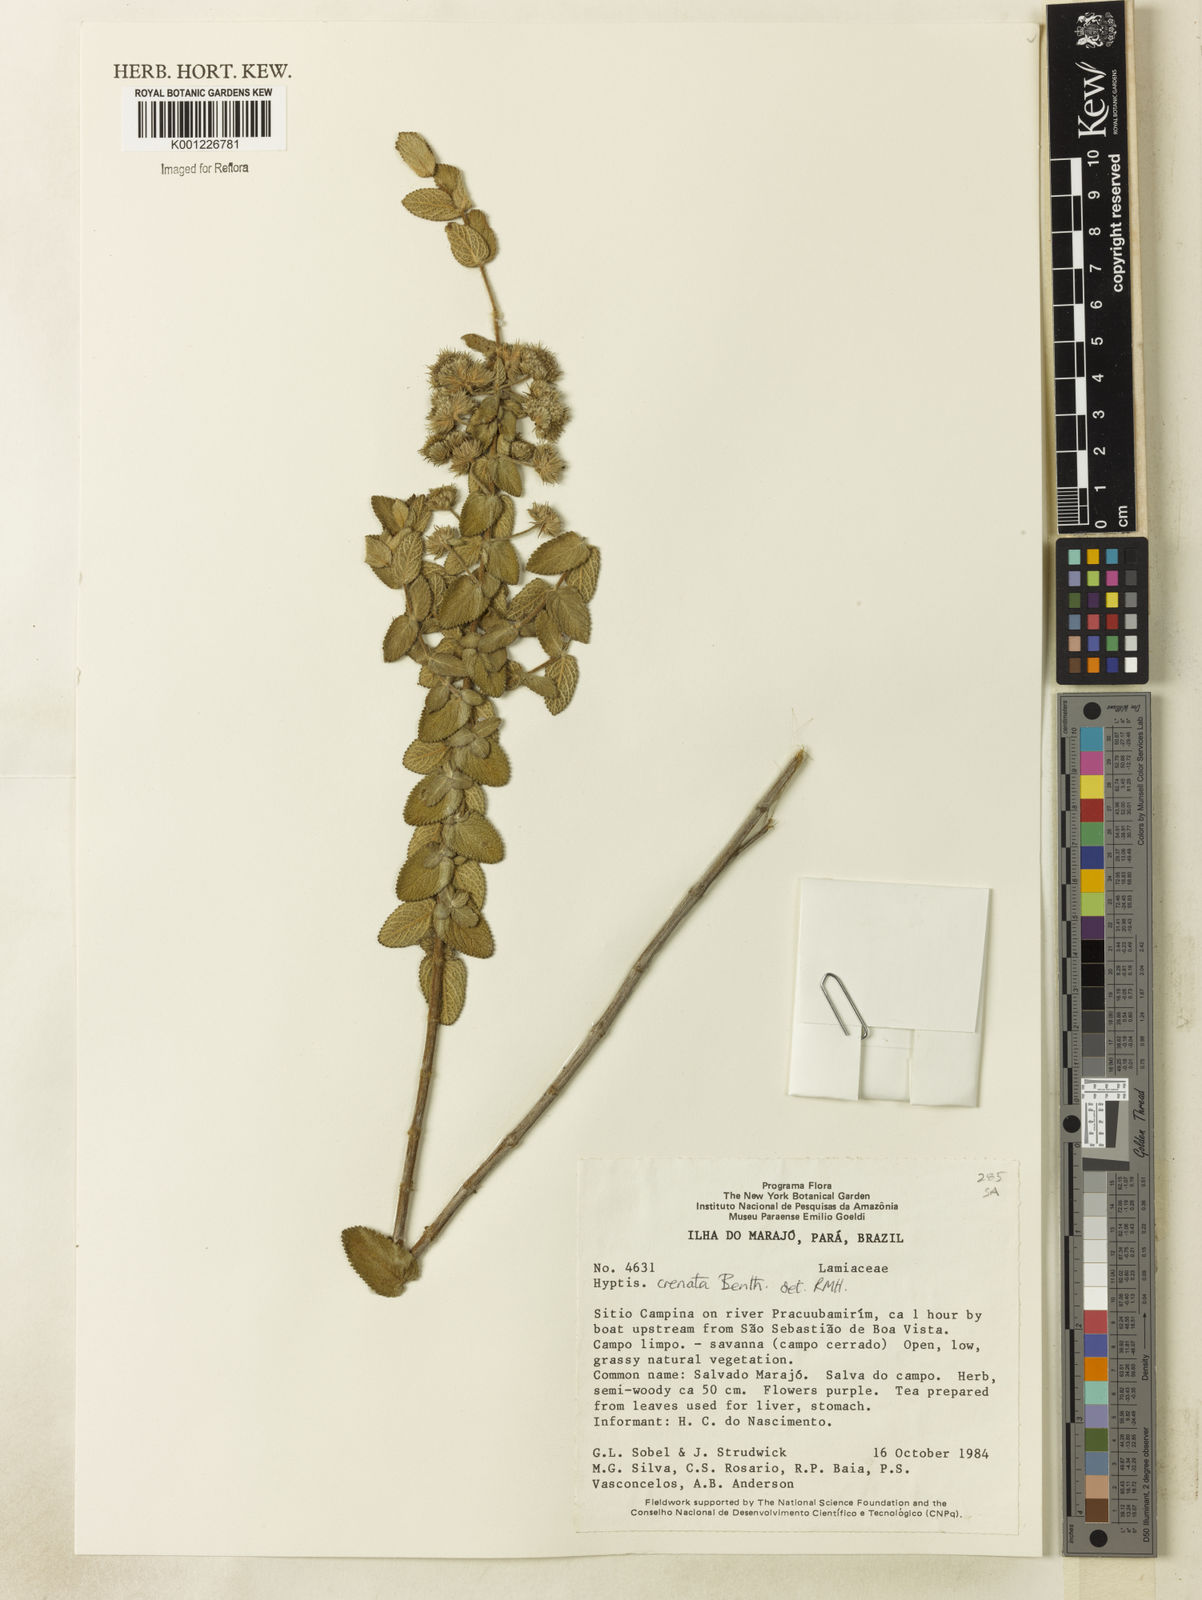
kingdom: Plantae
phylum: Tracheophyta
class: Magnoliopsida
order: Lamiales
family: Lamiaceae
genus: Hyptis
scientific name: Hyptis crenata
